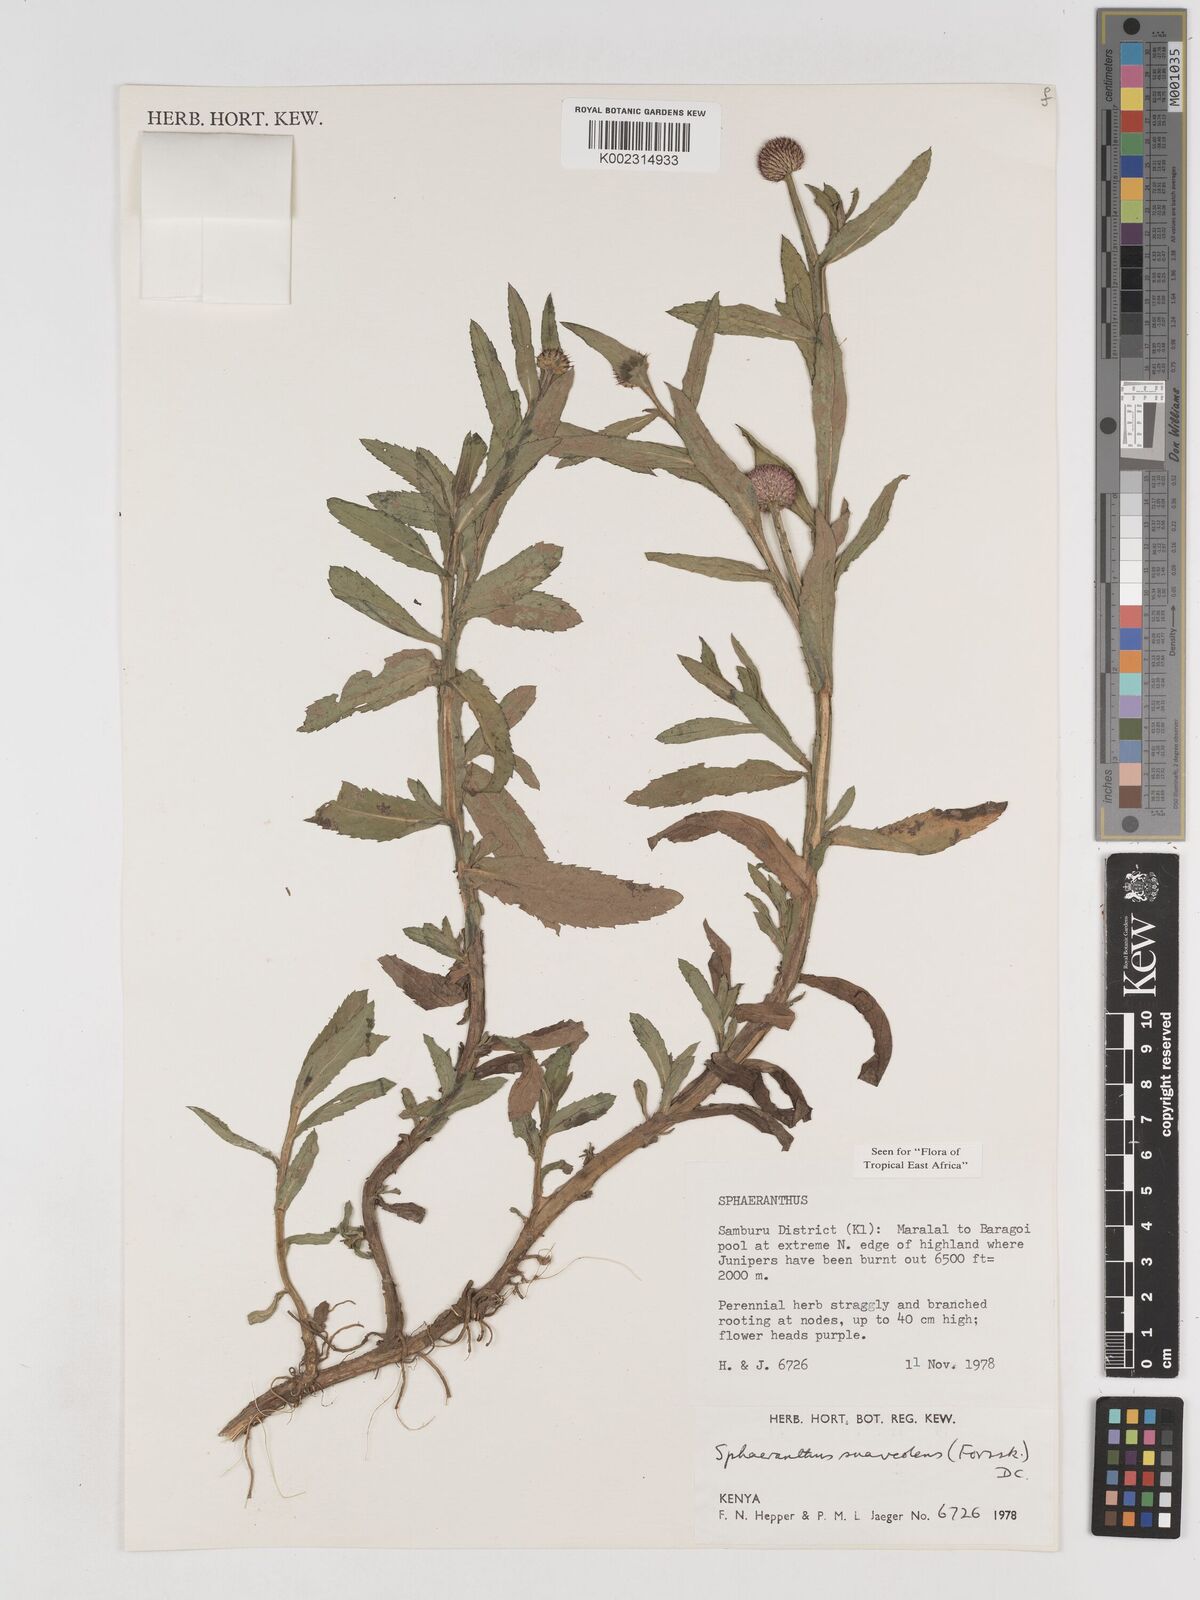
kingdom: Plantae
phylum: Tracheophyta
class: Magnoliopsida
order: Asterales
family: Asteraceae
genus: Sphaeranthus
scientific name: Sphaeranthus suaveolens
